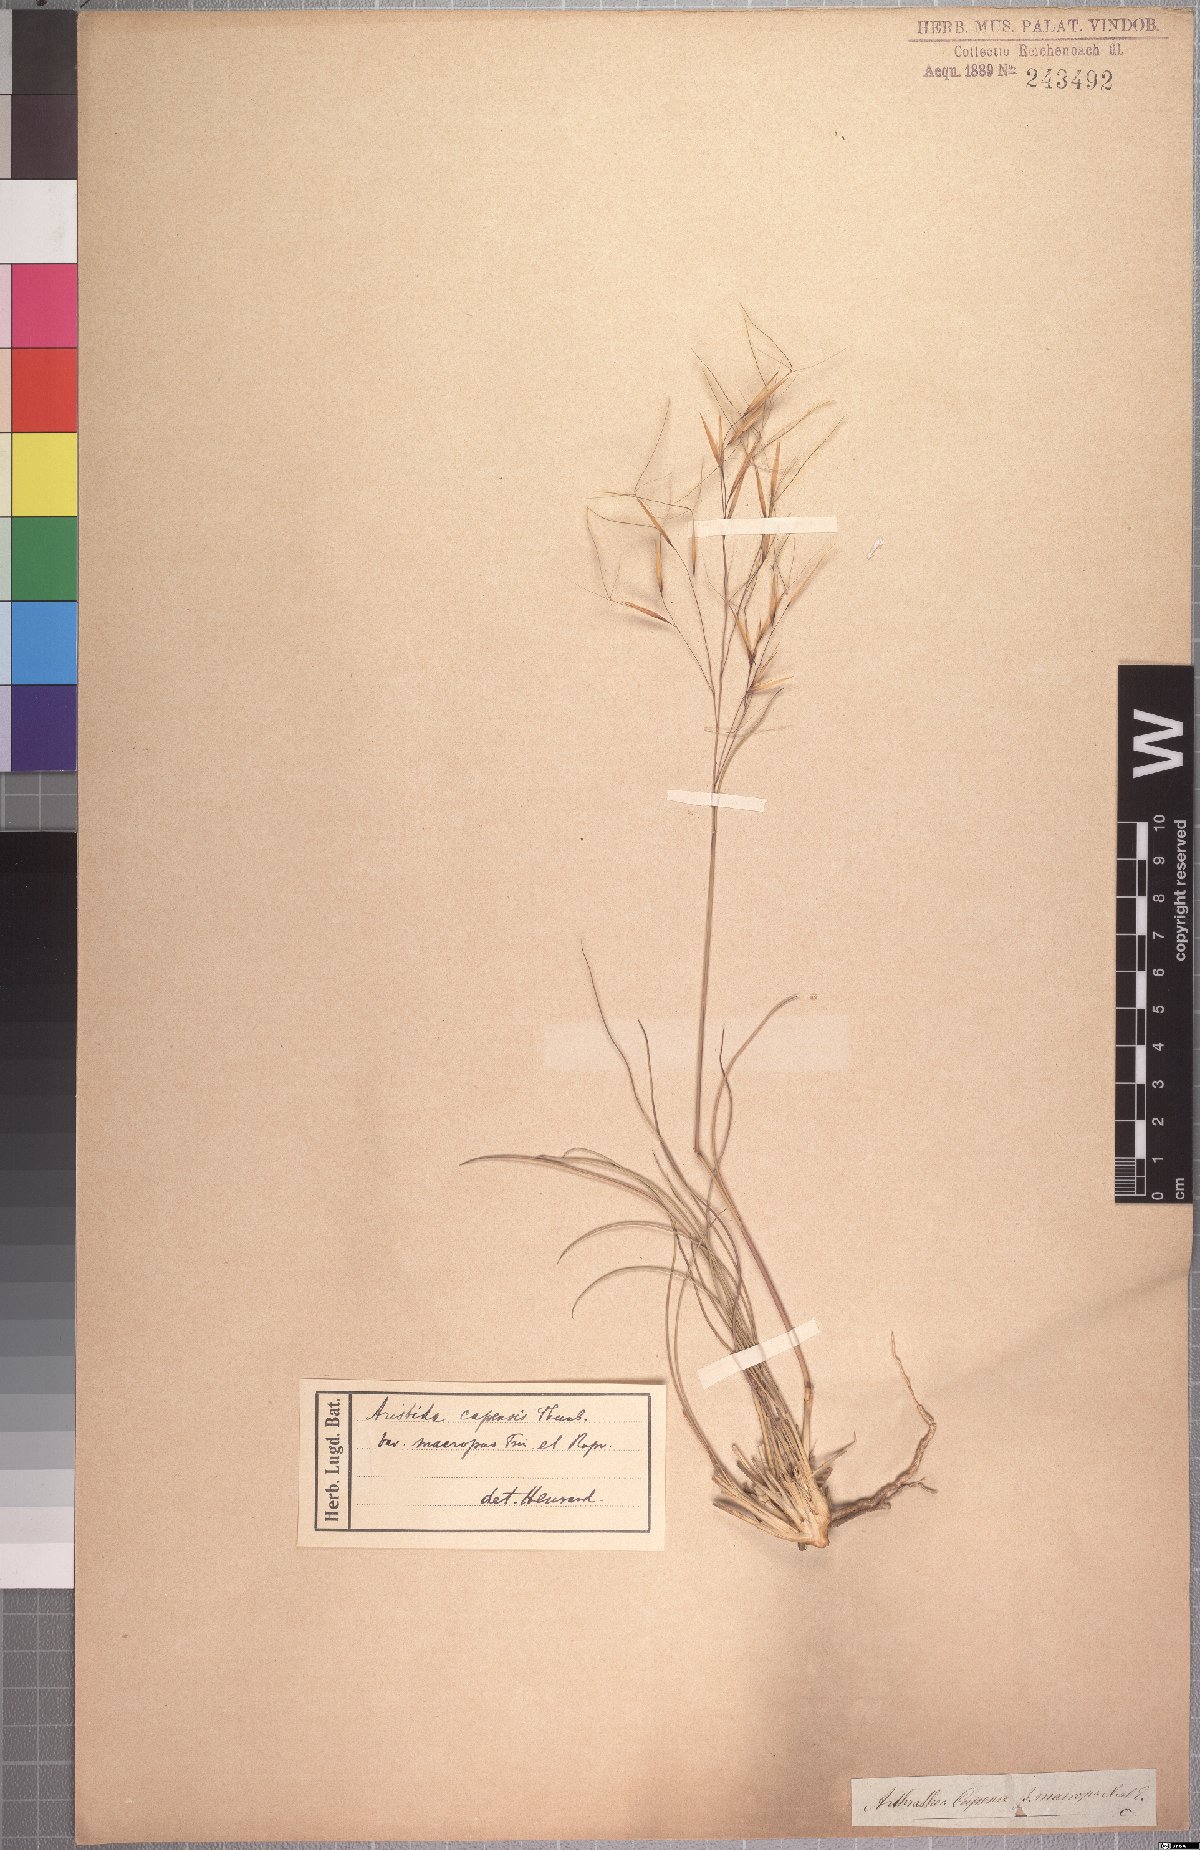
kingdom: Plantae
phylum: Tracheophyta
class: Liliopsida
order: Poales
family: Poaceae
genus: Stipagrostis
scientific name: Stipagrostis zeyheri
